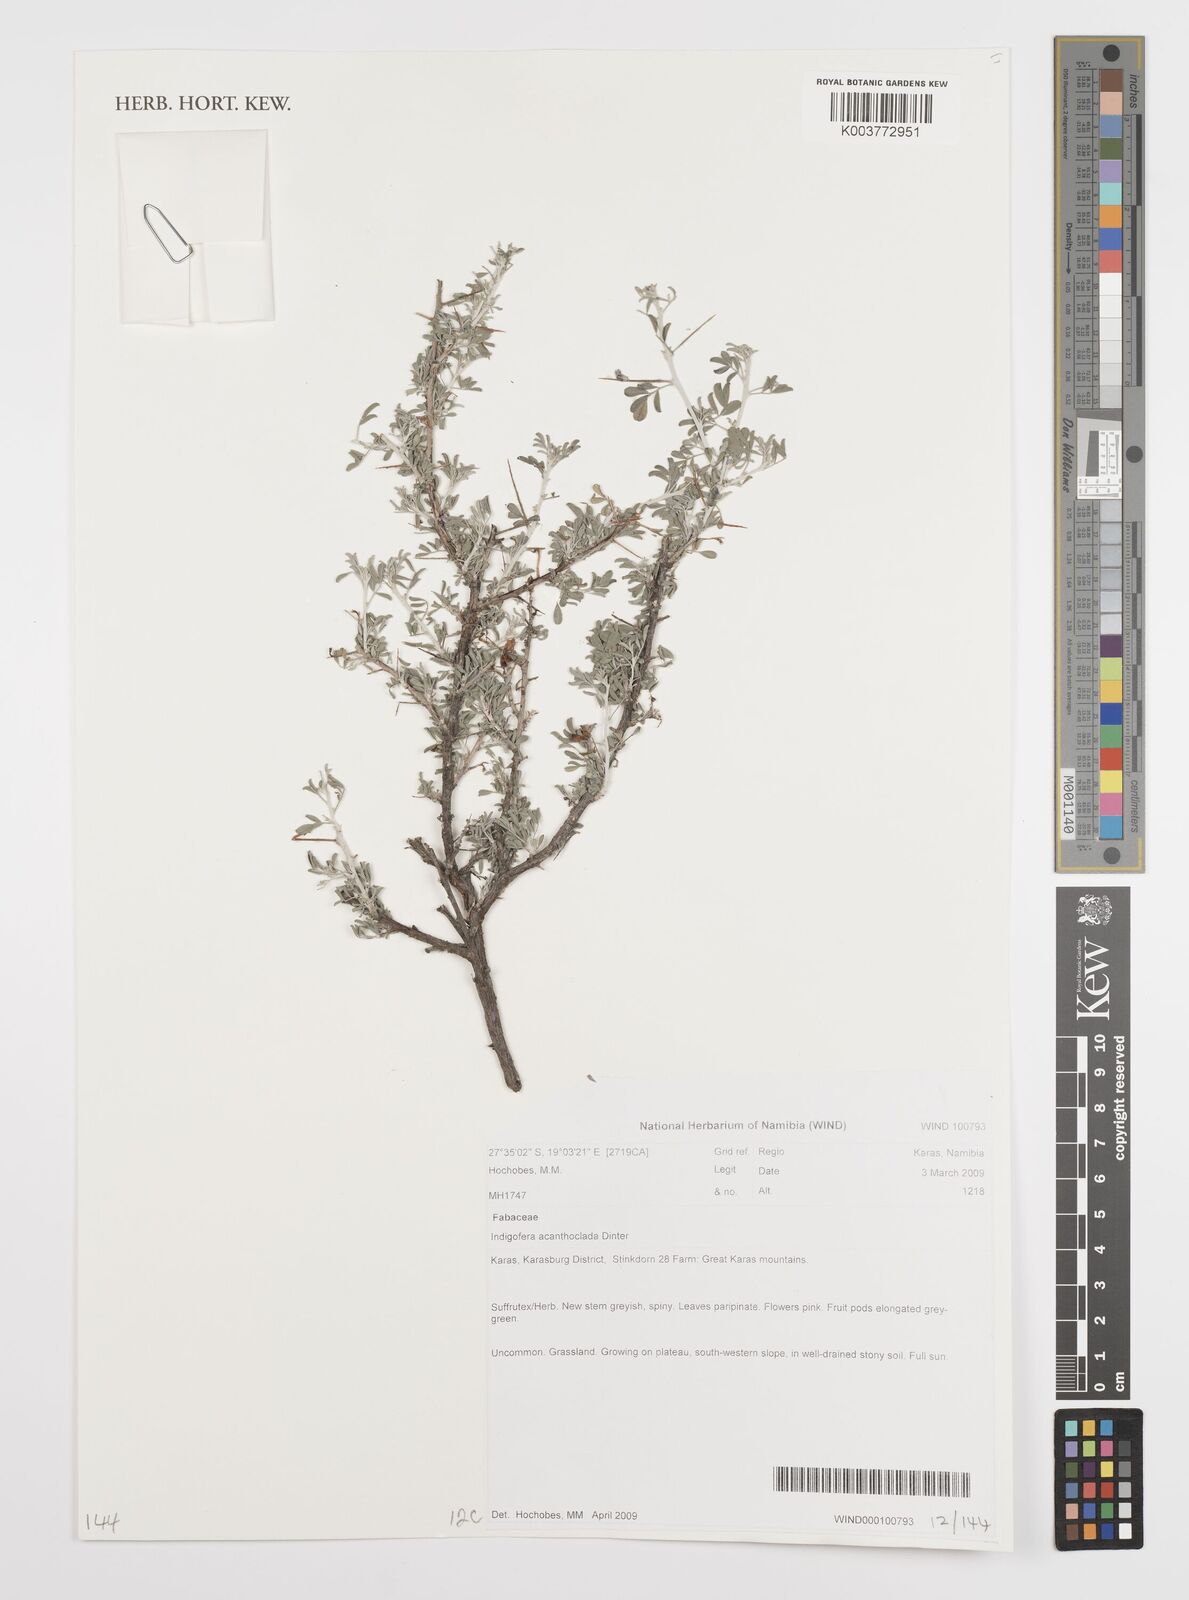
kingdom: Plantae
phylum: Tracheophyta
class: Magnoliopsida
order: Fabales
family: Fabaceae
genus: Indigofera
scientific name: Indigofera acanthoclada
